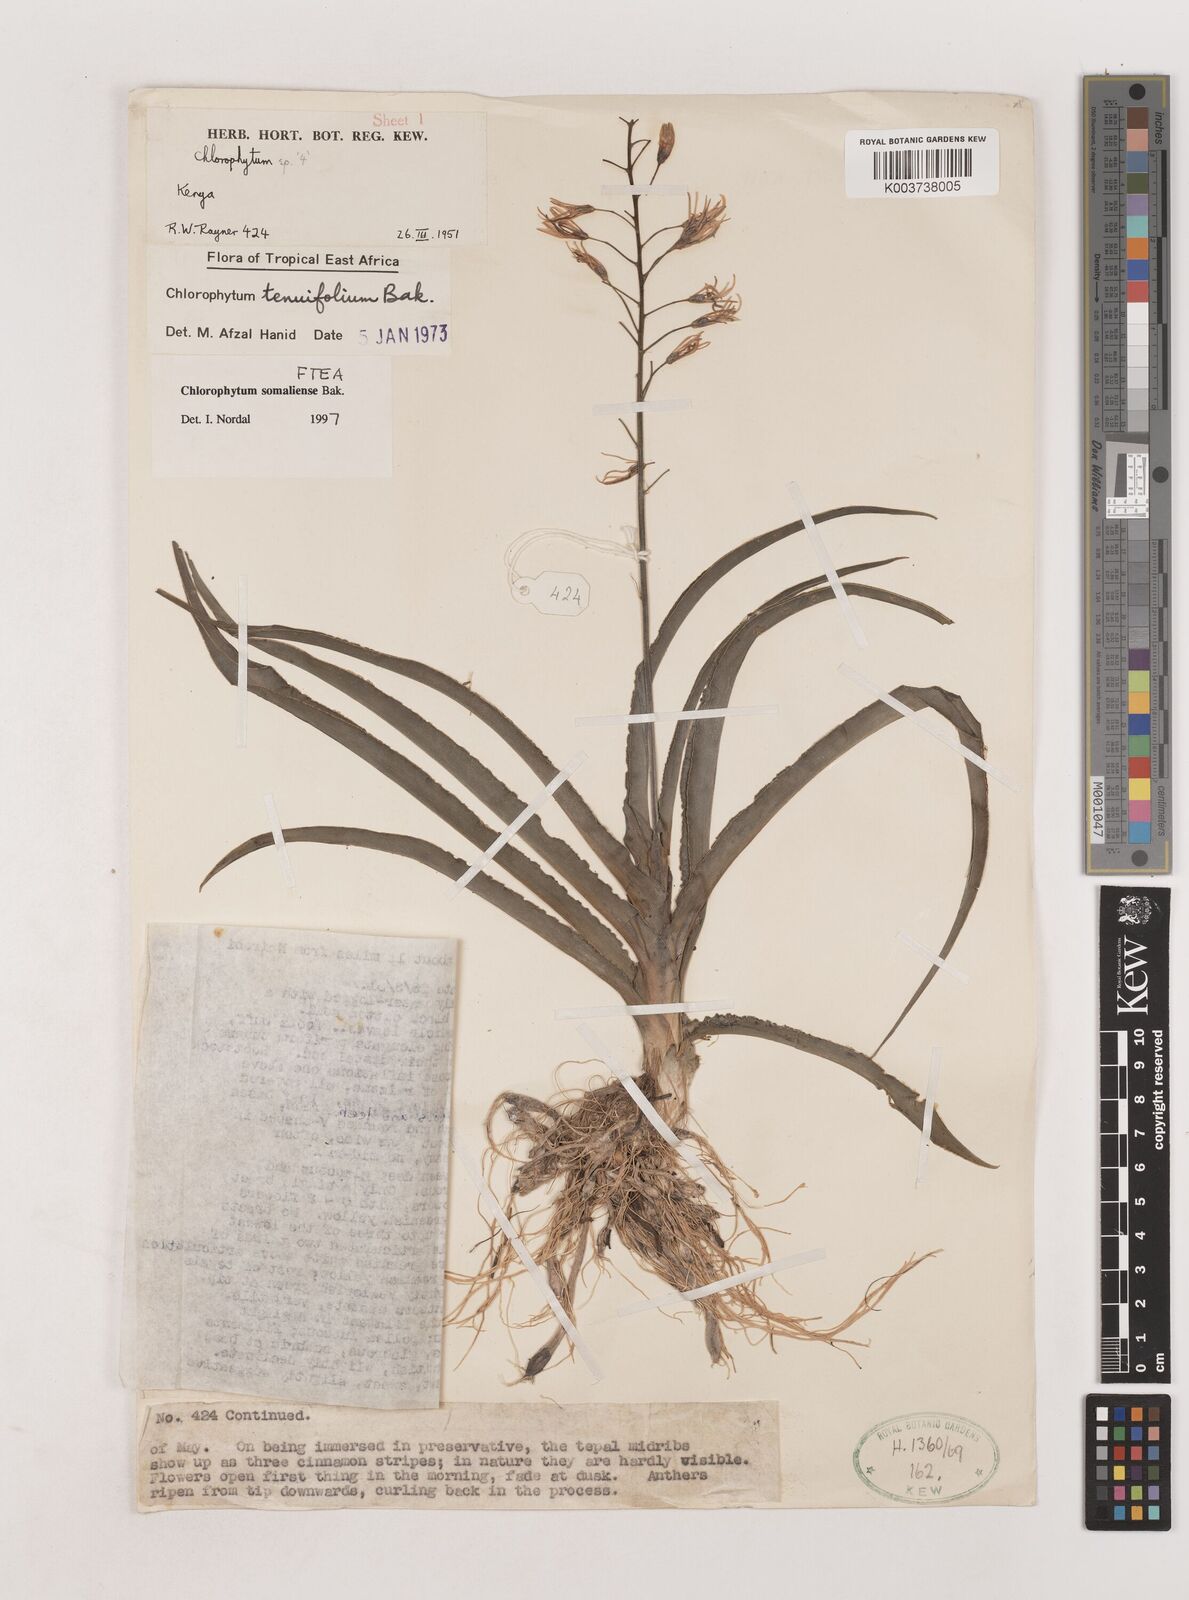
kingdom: Plantae
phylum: Tracheophyta
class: Liliopsida
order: Asparagales
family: Asparagaceae
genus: Chlorophytum
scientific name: Chlorophytum somaliense
